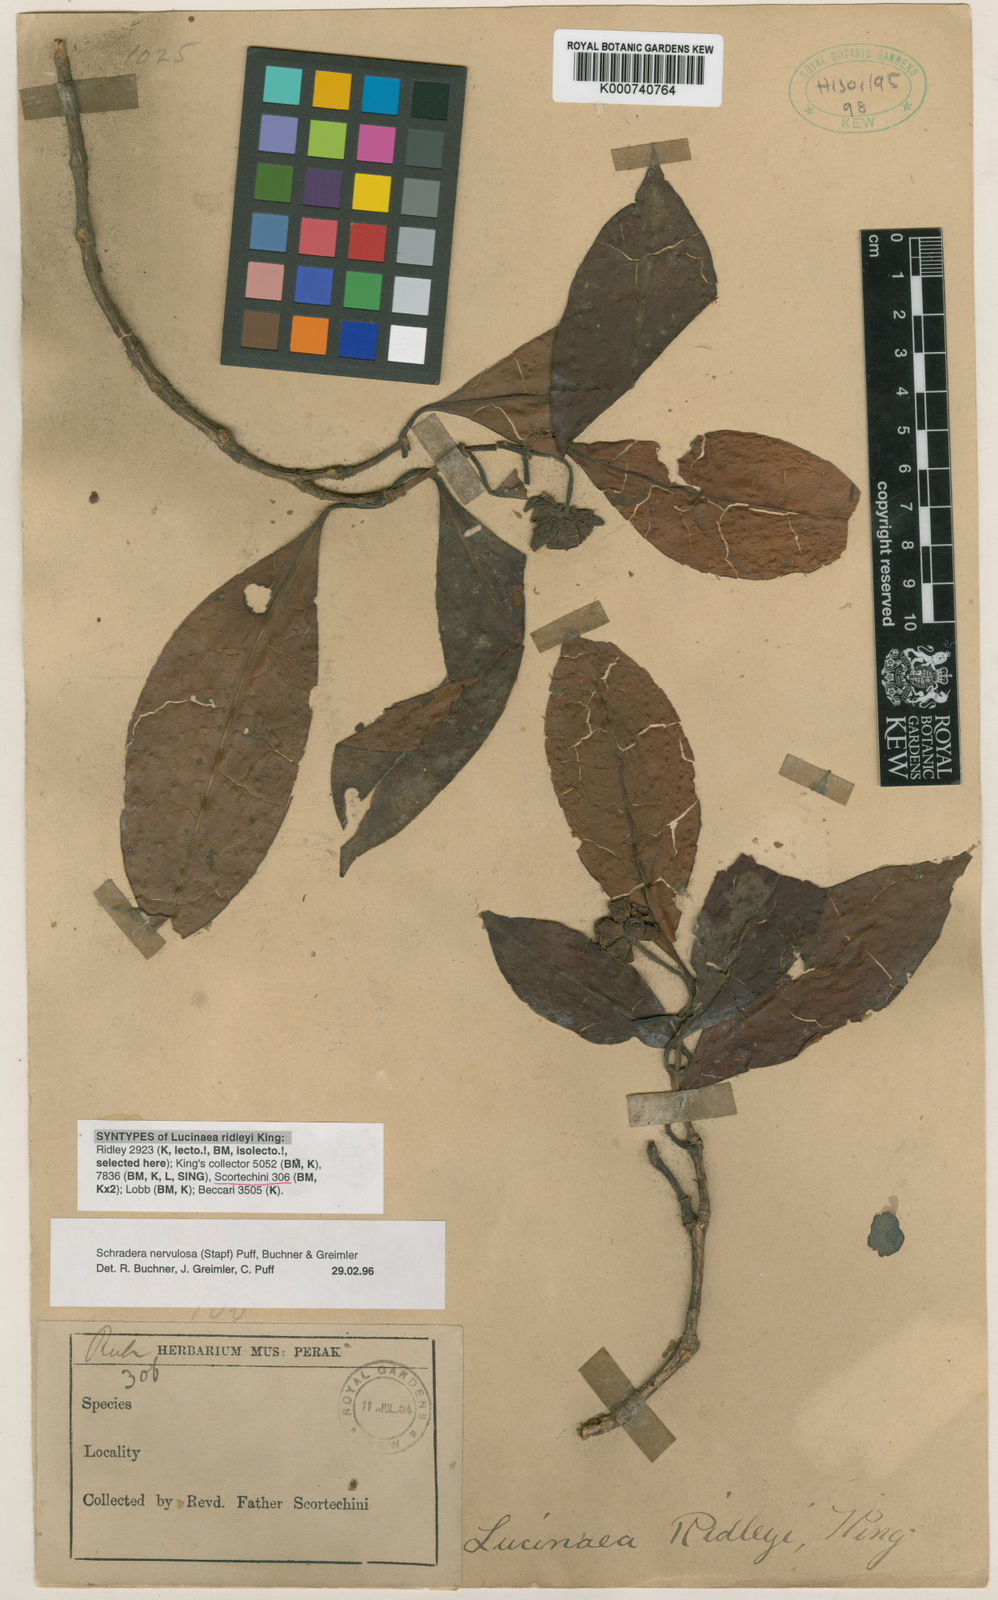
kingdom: Plantae
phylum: Tracheophyta
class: Magnoliopsida
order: Gentianales
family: Rubiaceae
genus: Schradera
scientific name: Schradera nervulosa
